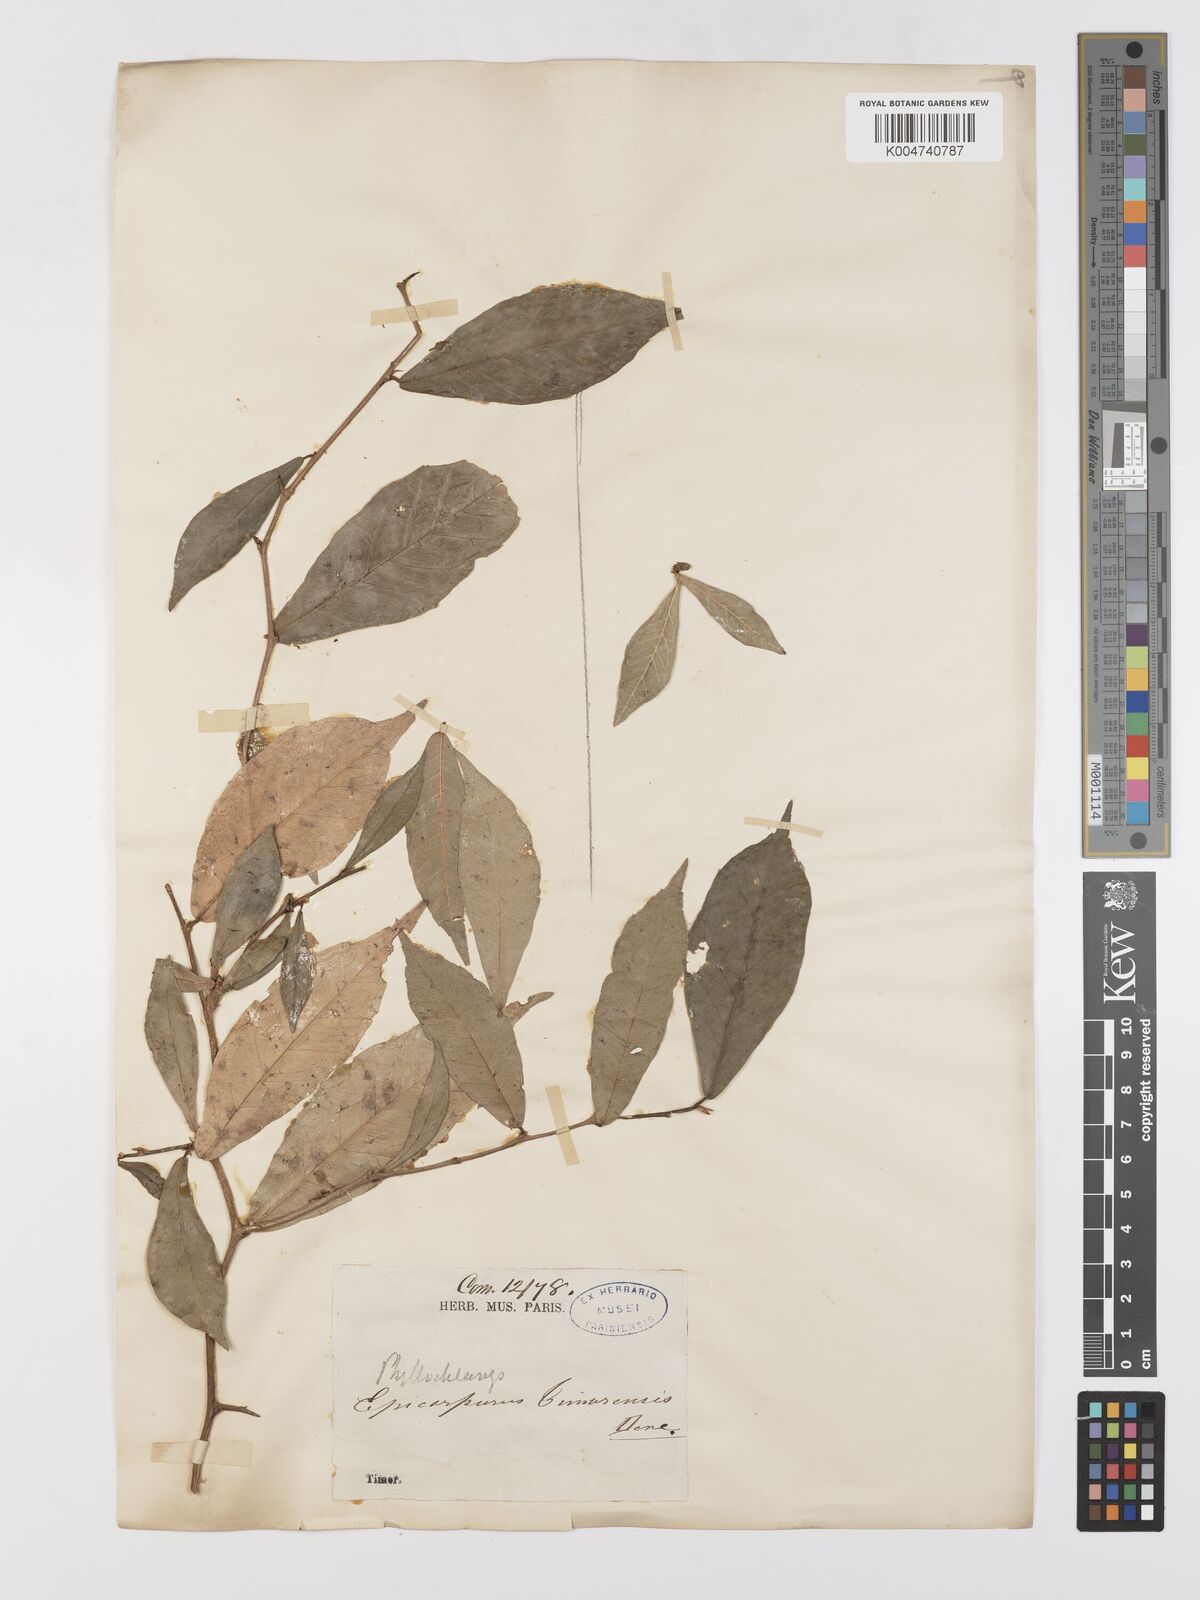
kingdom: Plantae
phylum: Tracheophyta
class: Magnoliopsida
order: Rosales
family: Moraceae
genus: Taxotrophis
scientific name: Taxotrophis taxoides
